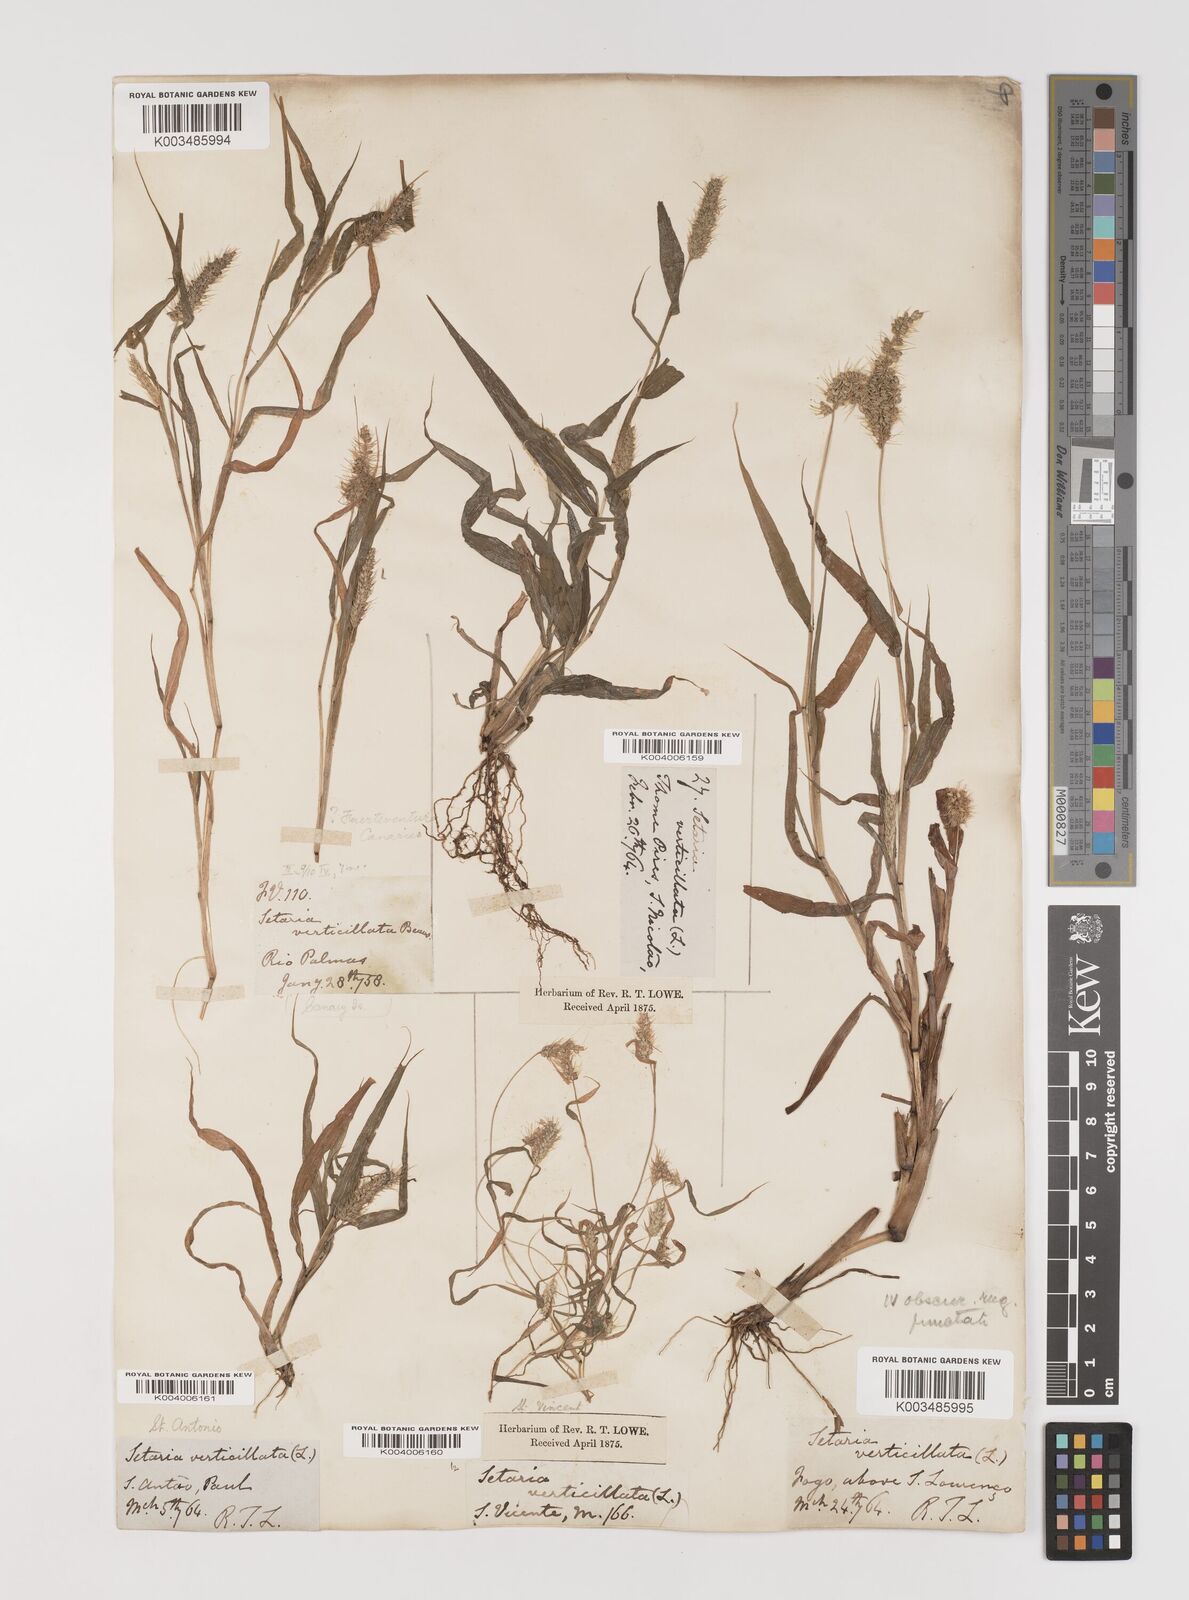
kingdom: Plantae
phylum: Tracheophyta
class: Liliopsida
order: Poales
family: Poaceae
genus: Setaria
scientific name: Setaria verticillata
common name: Hooked bristlegrass
